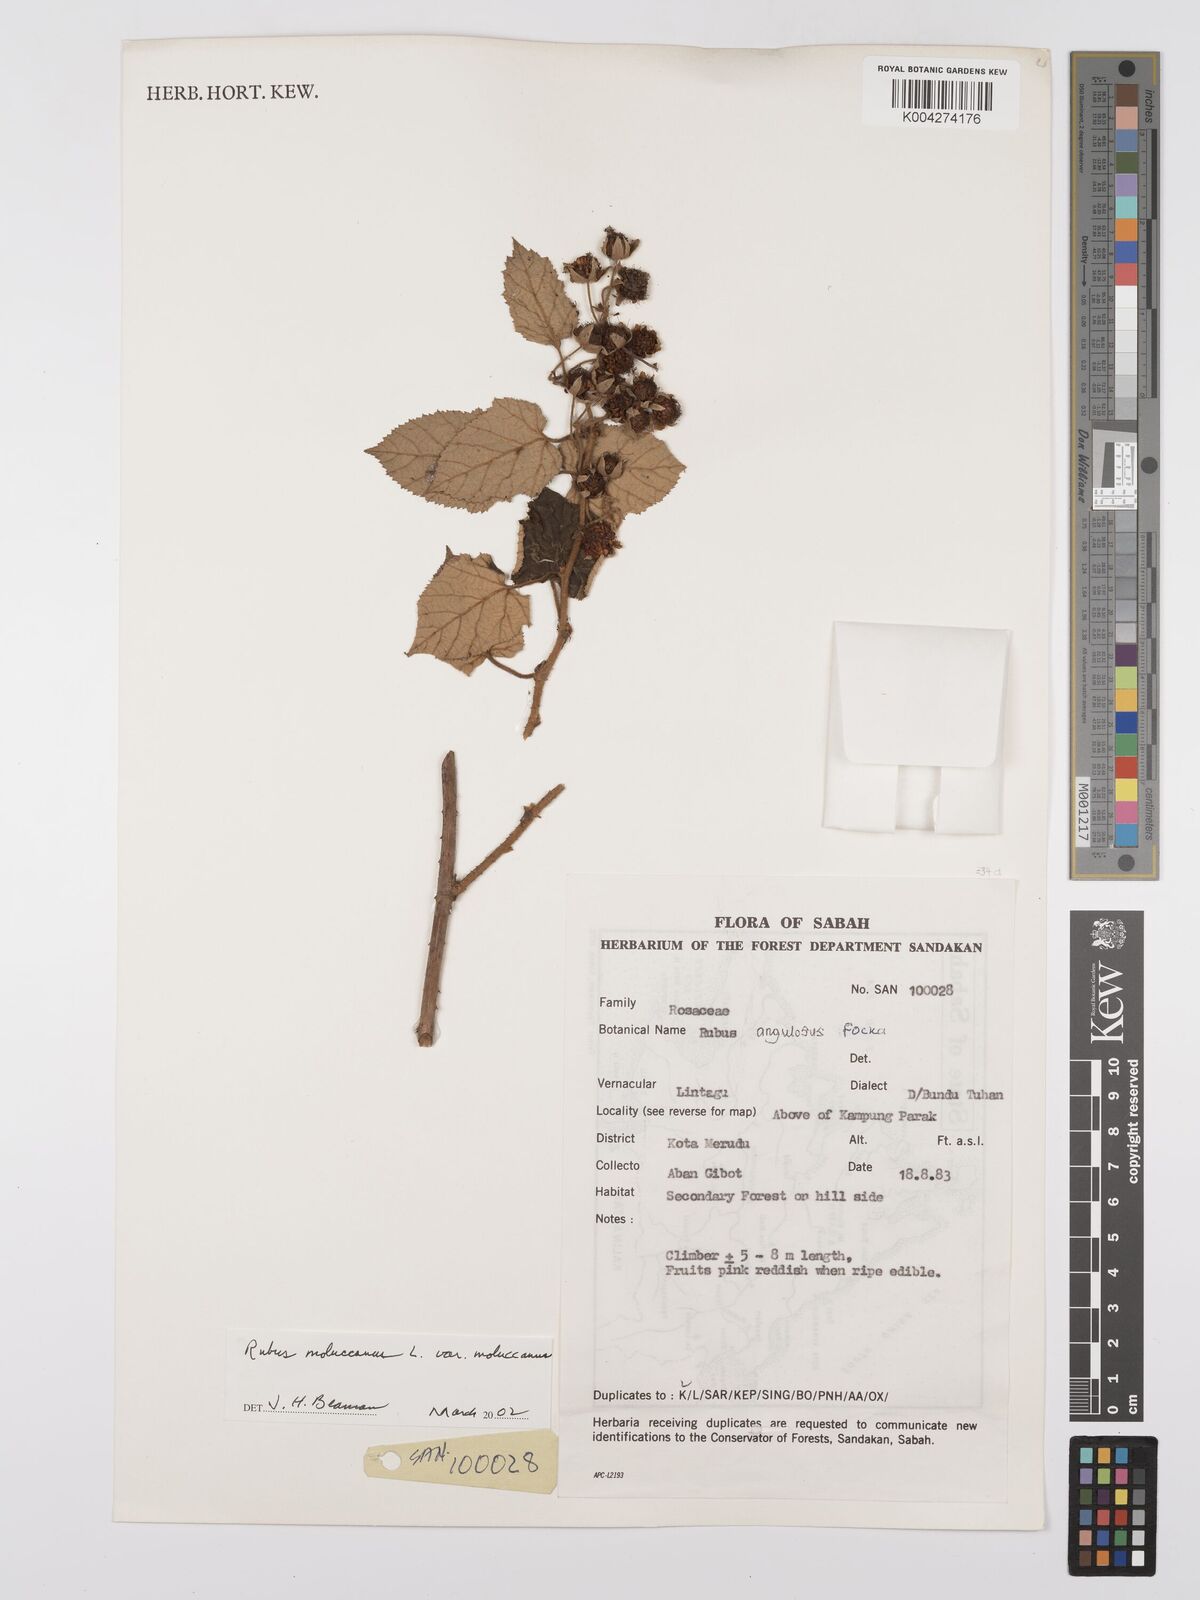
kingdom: Plantae
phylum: Tracheophyta
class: Magnoliopsida
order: Rosales
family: Rosaceae
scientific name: Rosaceae
